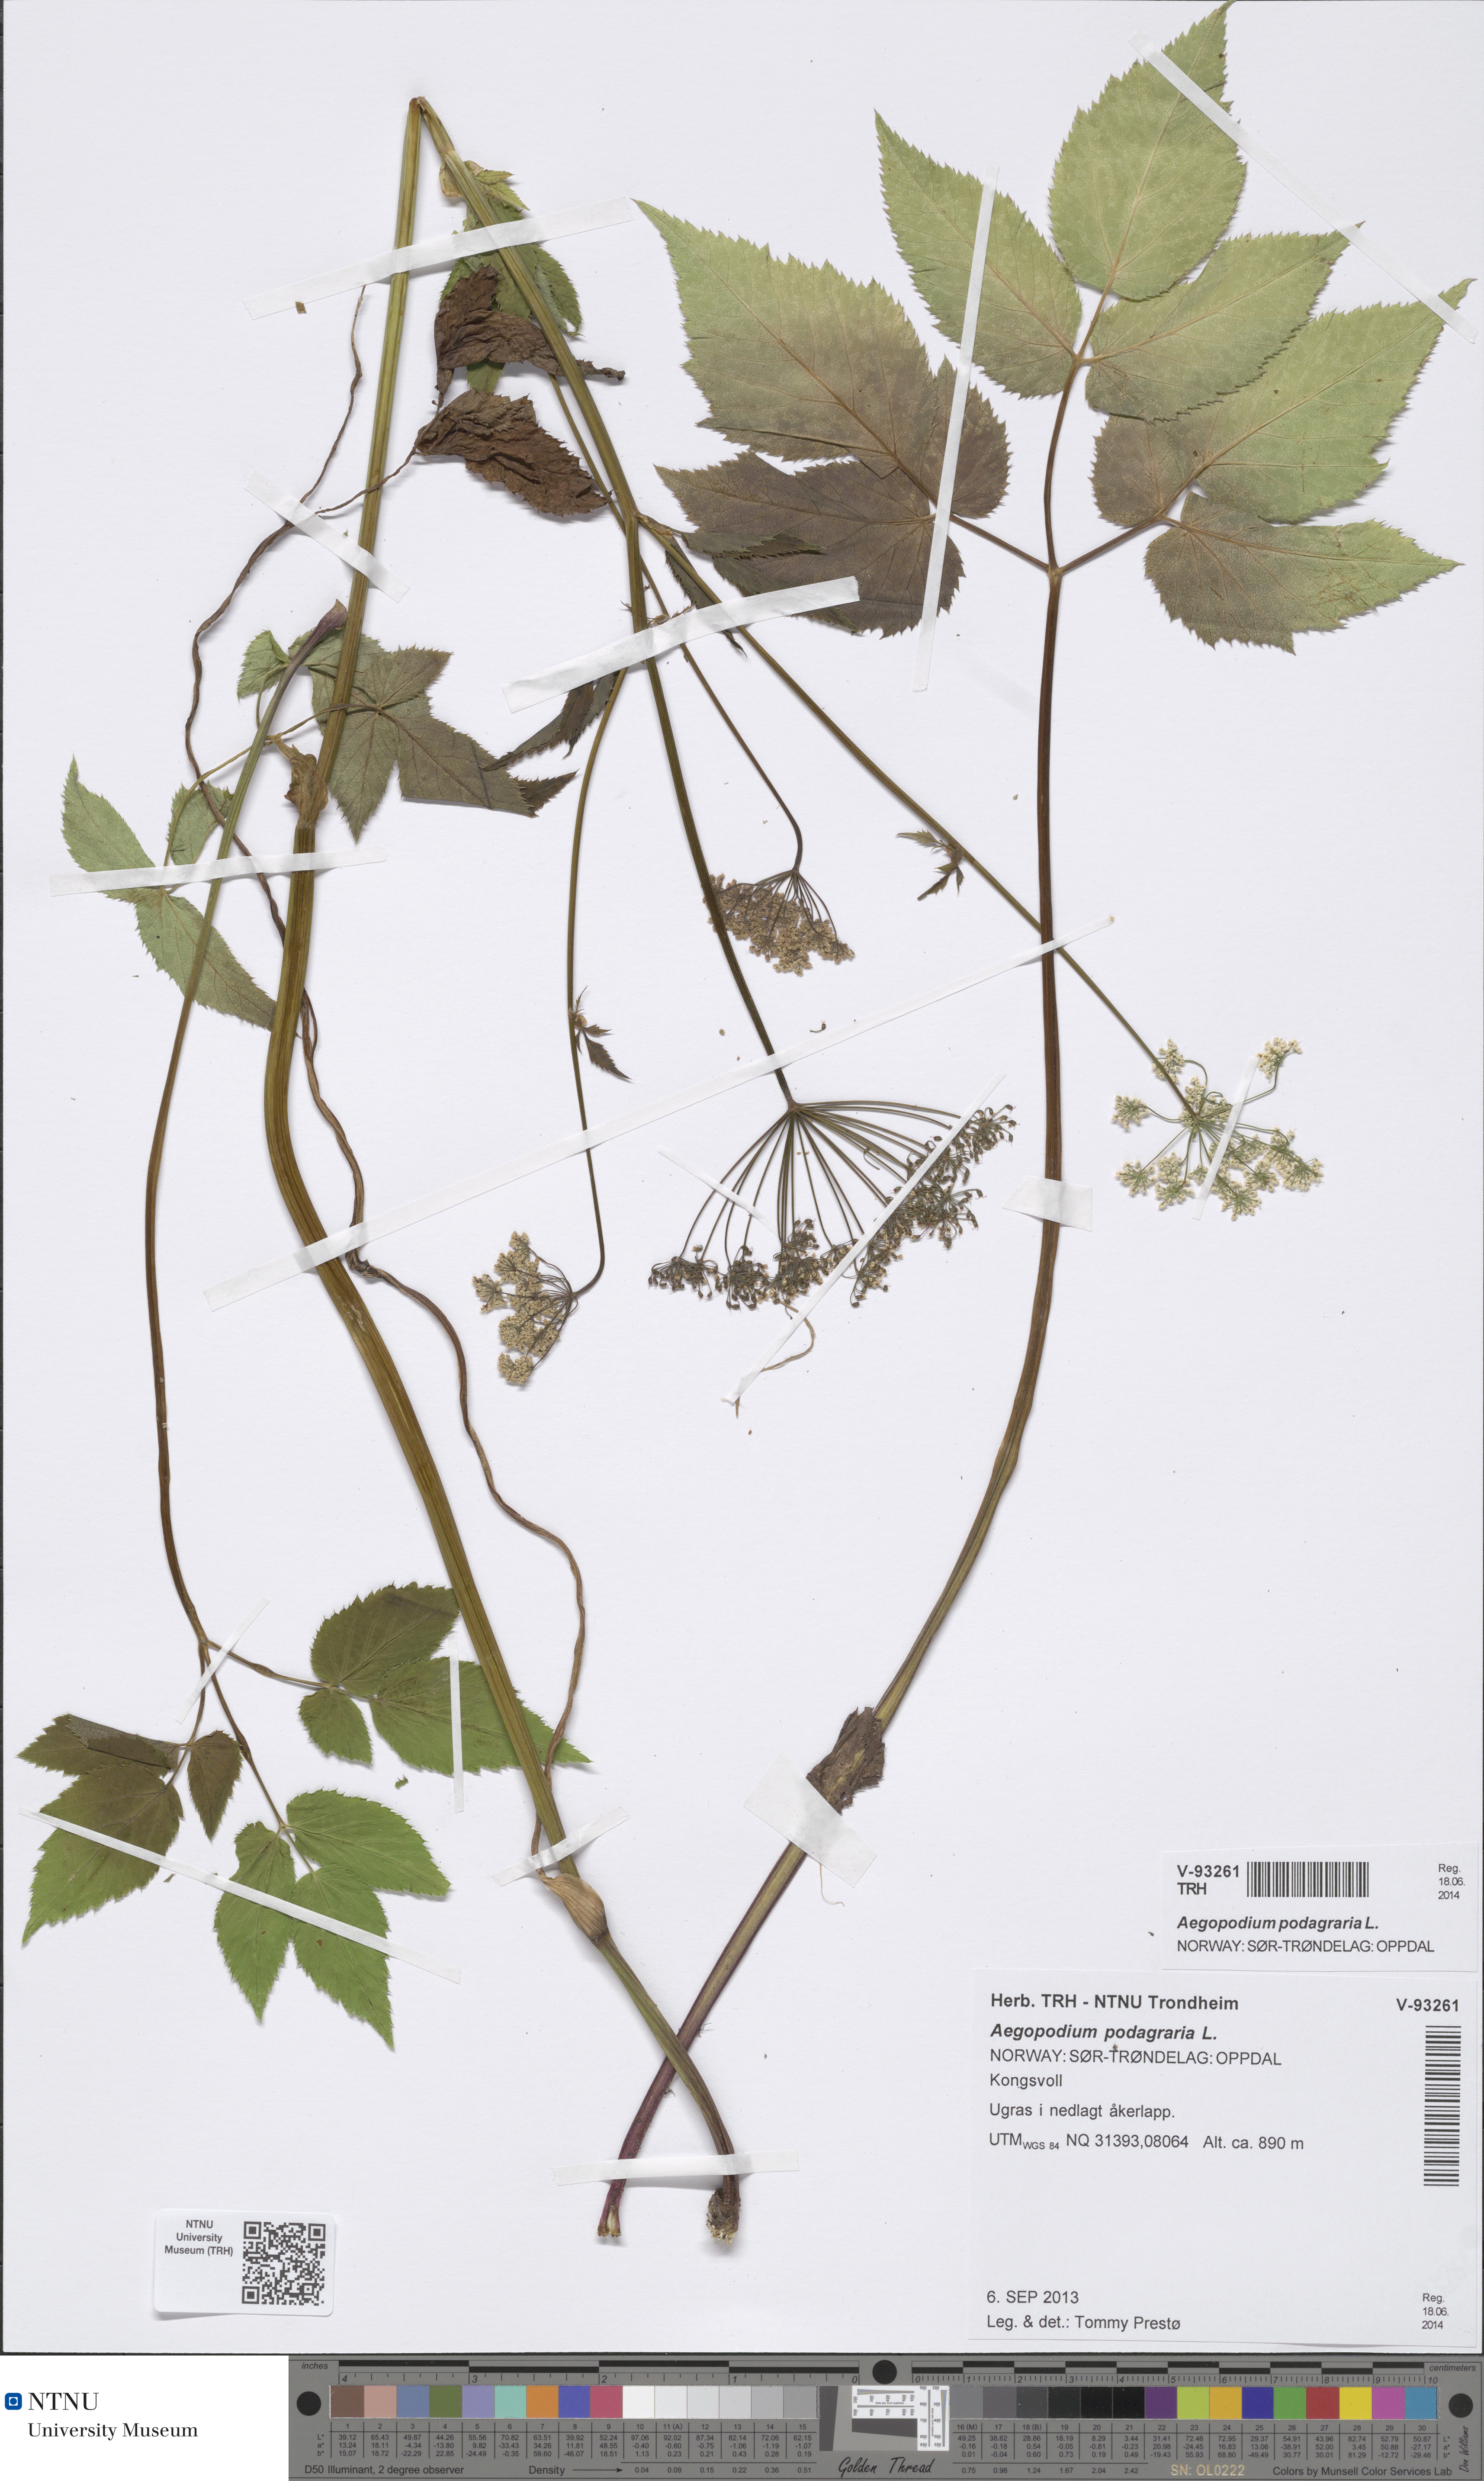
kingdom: Plantae
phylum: Tracheophyta
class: Magnoliopsida
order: Apiales
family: Apiaceae
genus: Aegopodium
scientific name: Aegopodium podagraria
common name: Ground-elder
